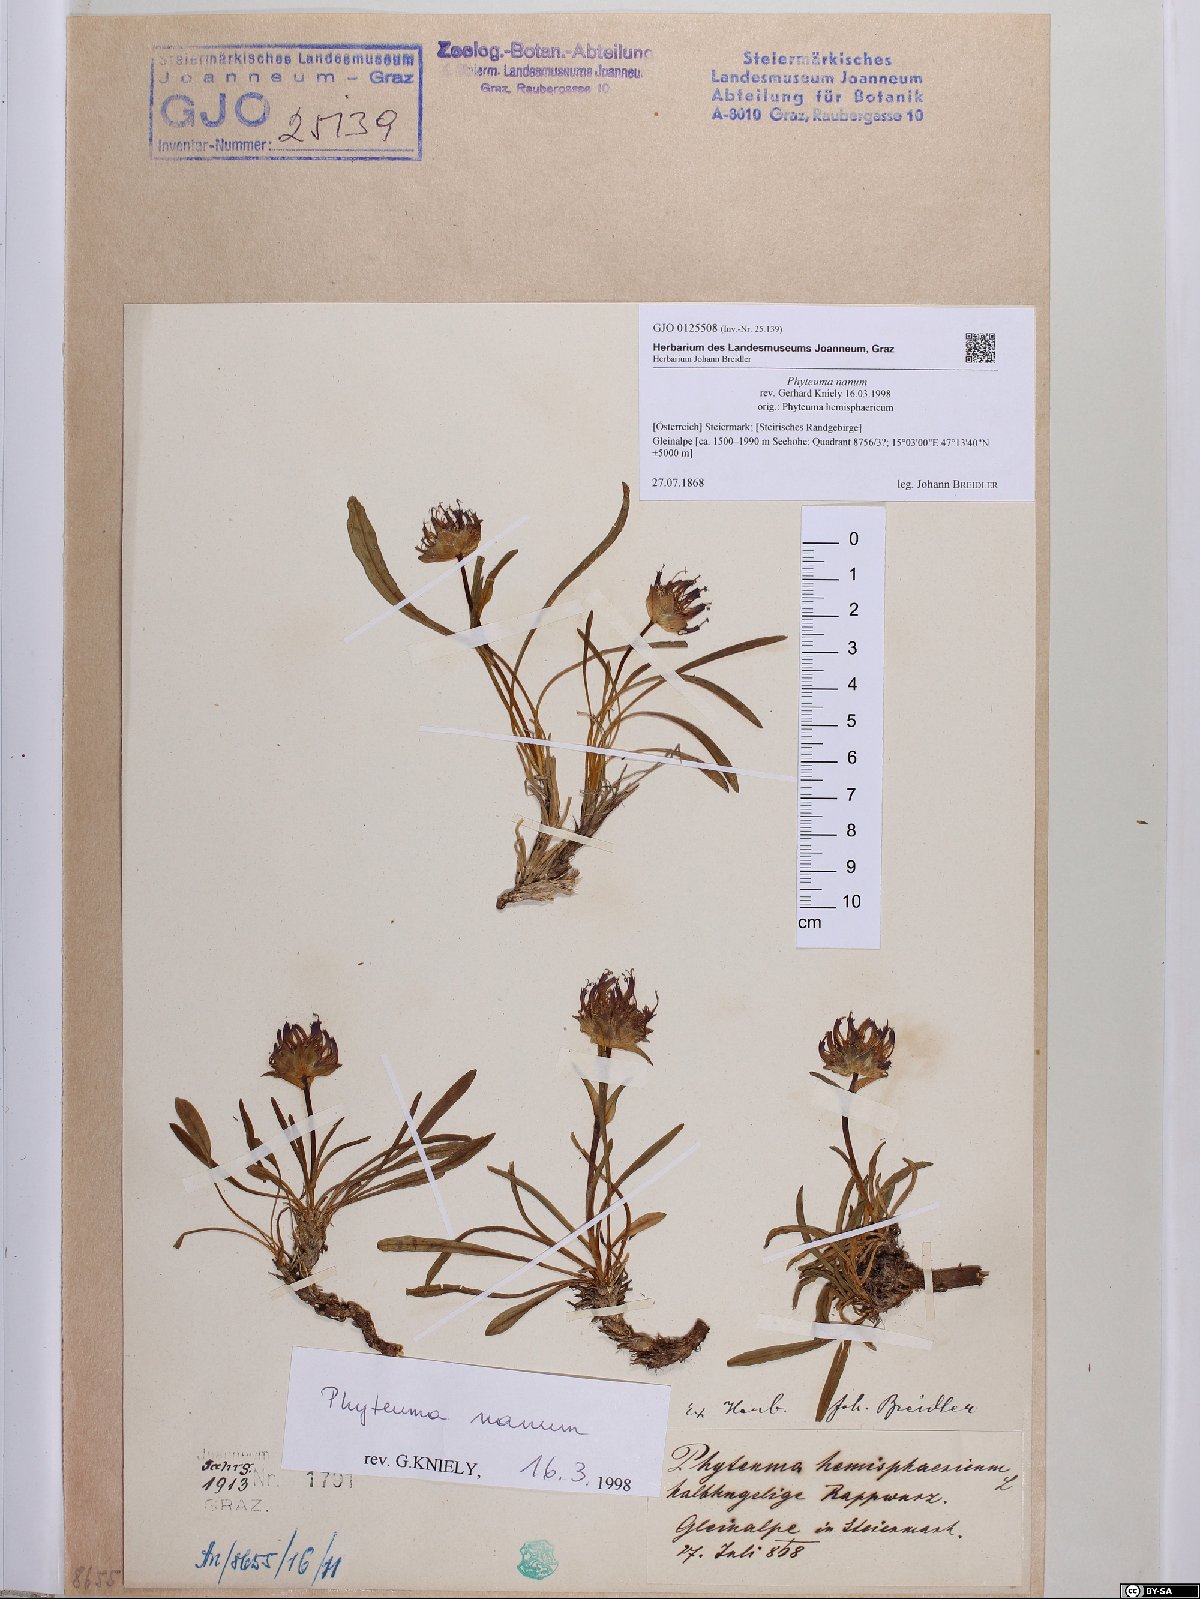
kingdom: Plantae
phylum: Tracheophyta
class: Magnoliopsida
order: Asterales
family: Campanulaceae
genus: Phyteuma
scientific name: Phyteuma globulariifolium
